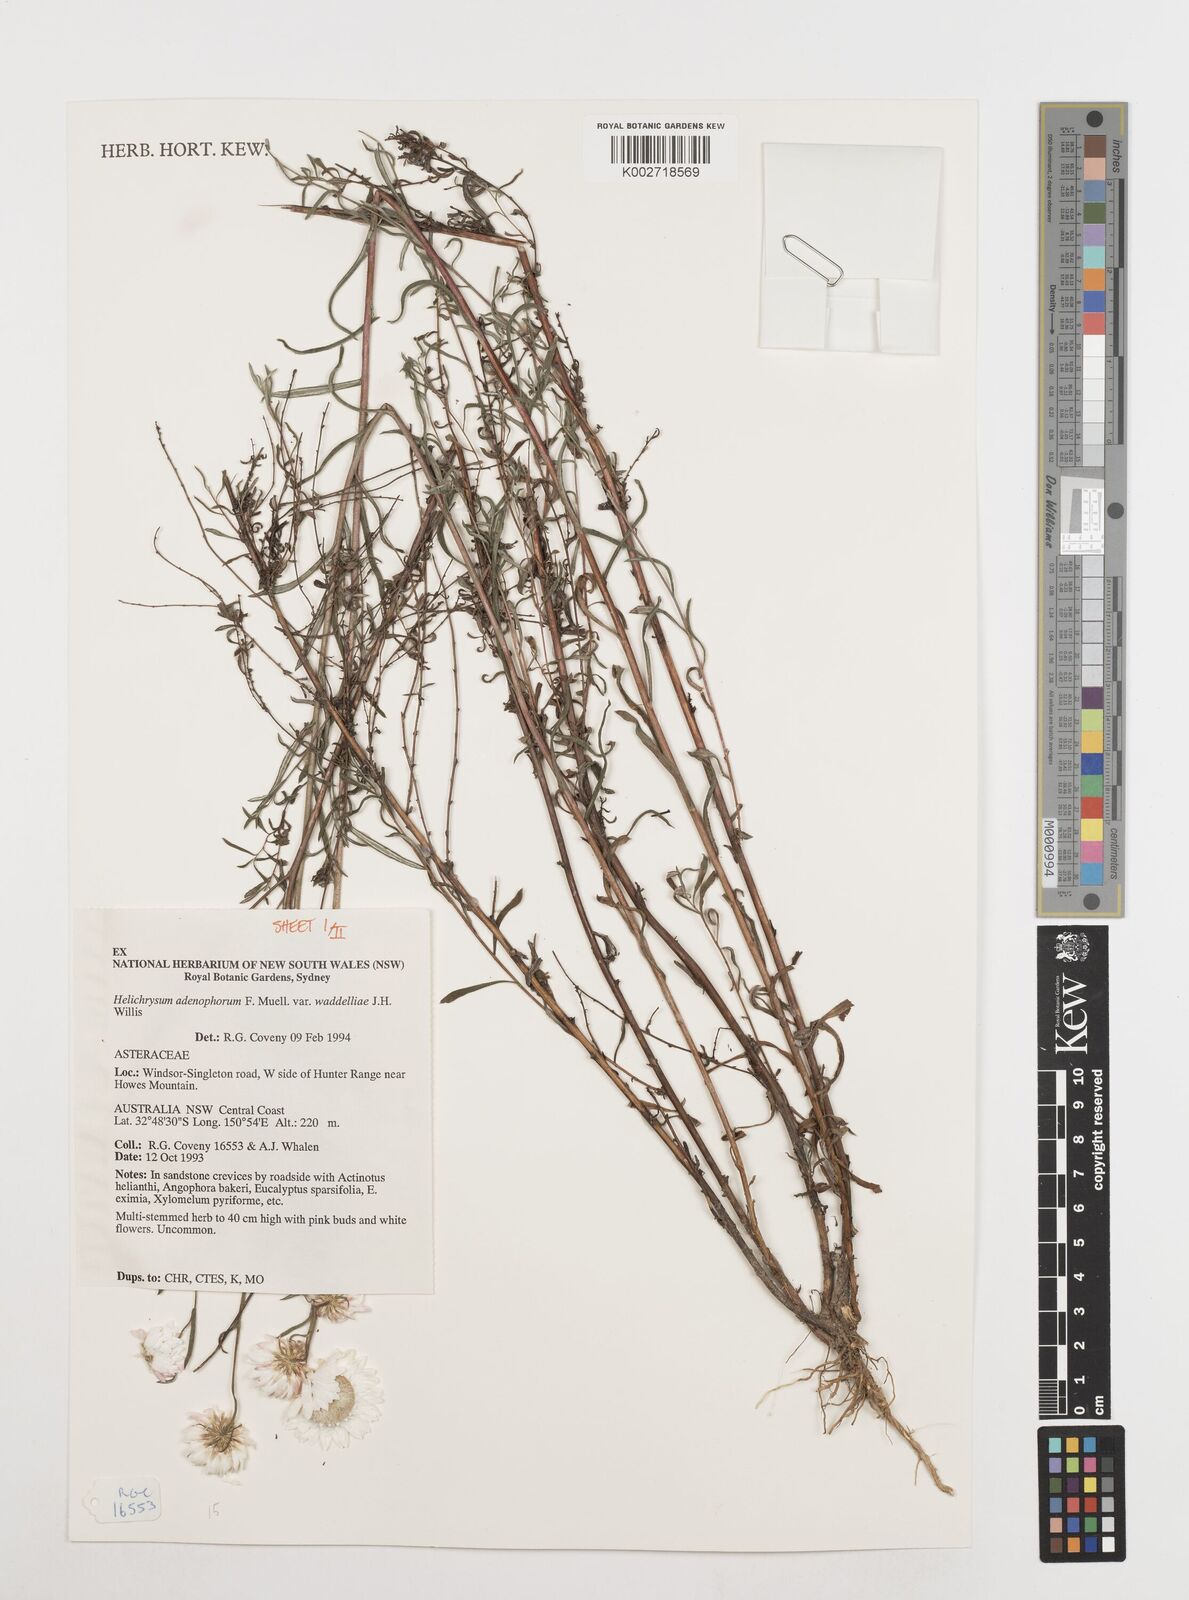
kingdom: Plantae
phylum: Tracheophyta
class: Magnoliopsida
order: Asterales
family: Asteraceae
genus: Coronidium
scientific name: Coronidium waddelliae
